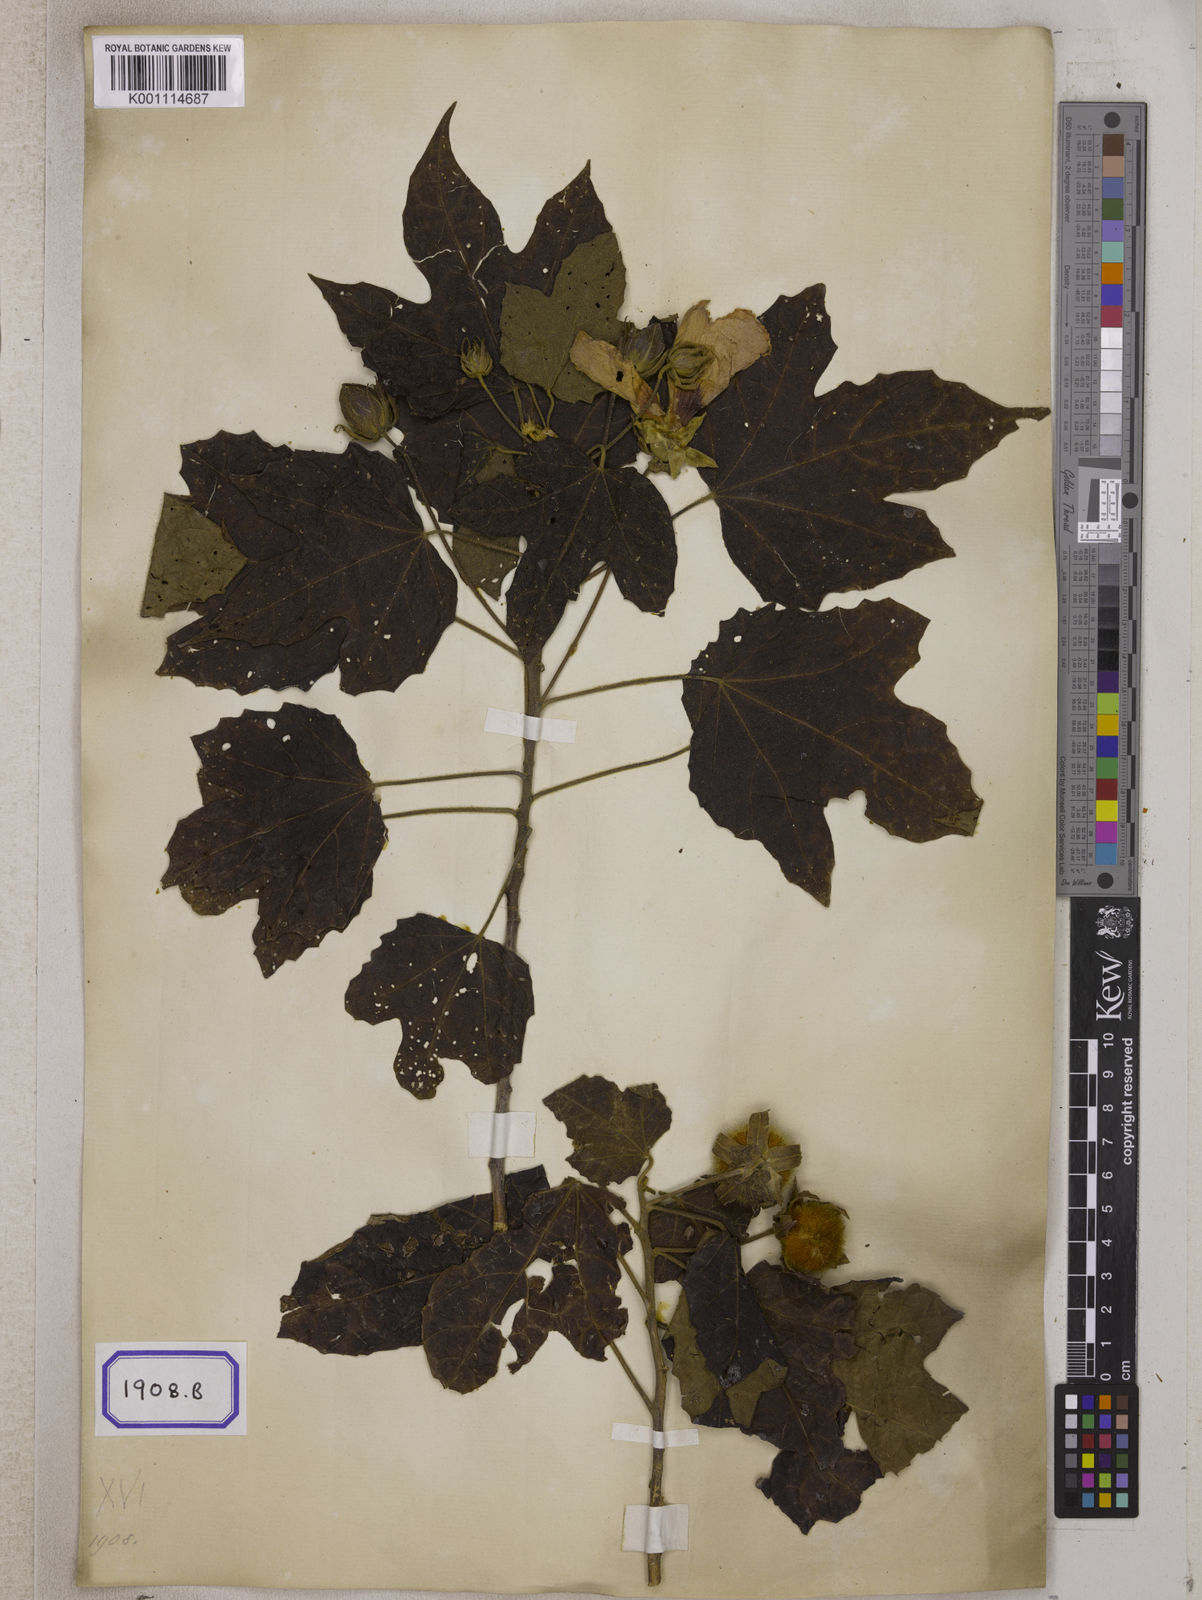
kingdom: Plantae
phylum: Tracheophyta
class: Magnoliopsida
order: Malvales
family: Malvaceae
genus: Hibiscus
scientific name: Hibiscus
